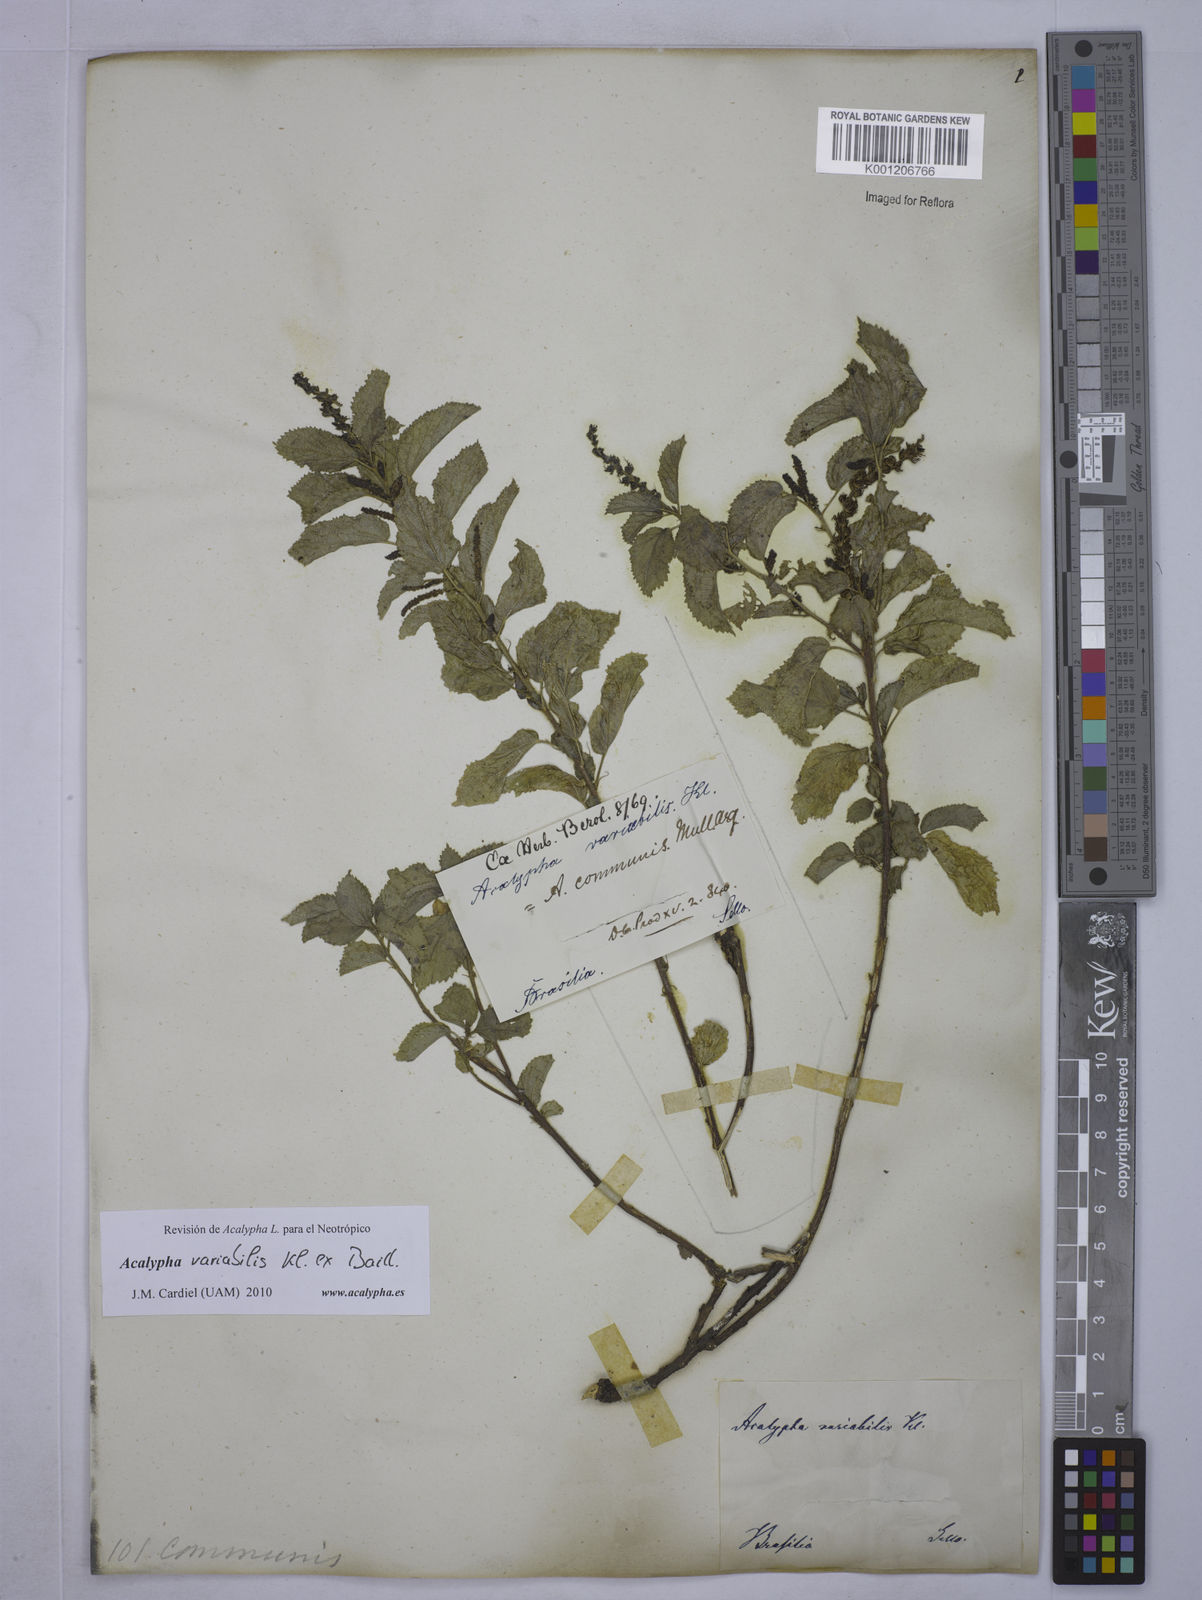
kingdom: Plantae
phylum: Tracheophyta
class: Magnoliopsida
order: Malpighiales
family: Euphorbiaceae
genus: Acalypha
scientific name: Acalypha variabilis
